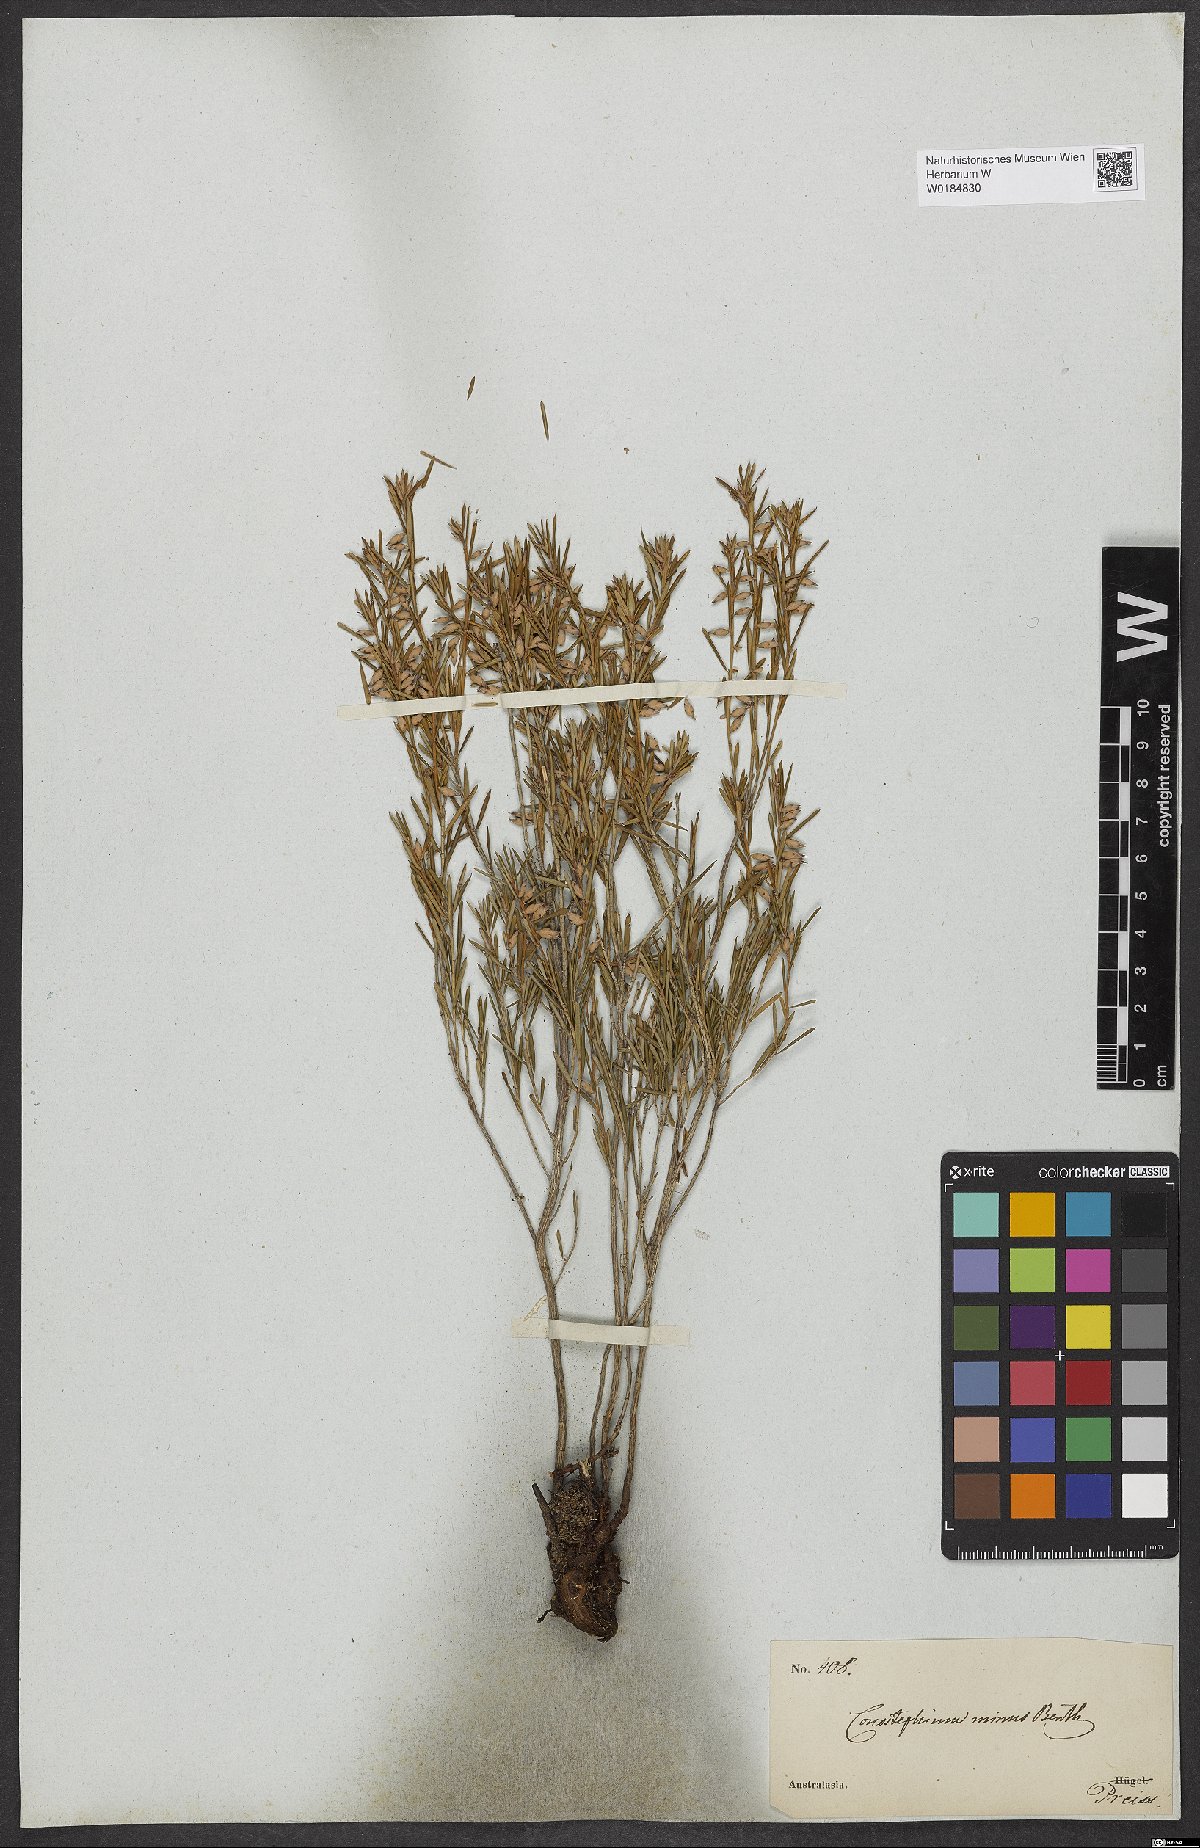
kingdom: Plantae
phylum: Tracheophyta
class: Magnoliopsida
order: Ericales
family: Ericaceae
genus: Conostephium
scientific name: Conostephium minus
